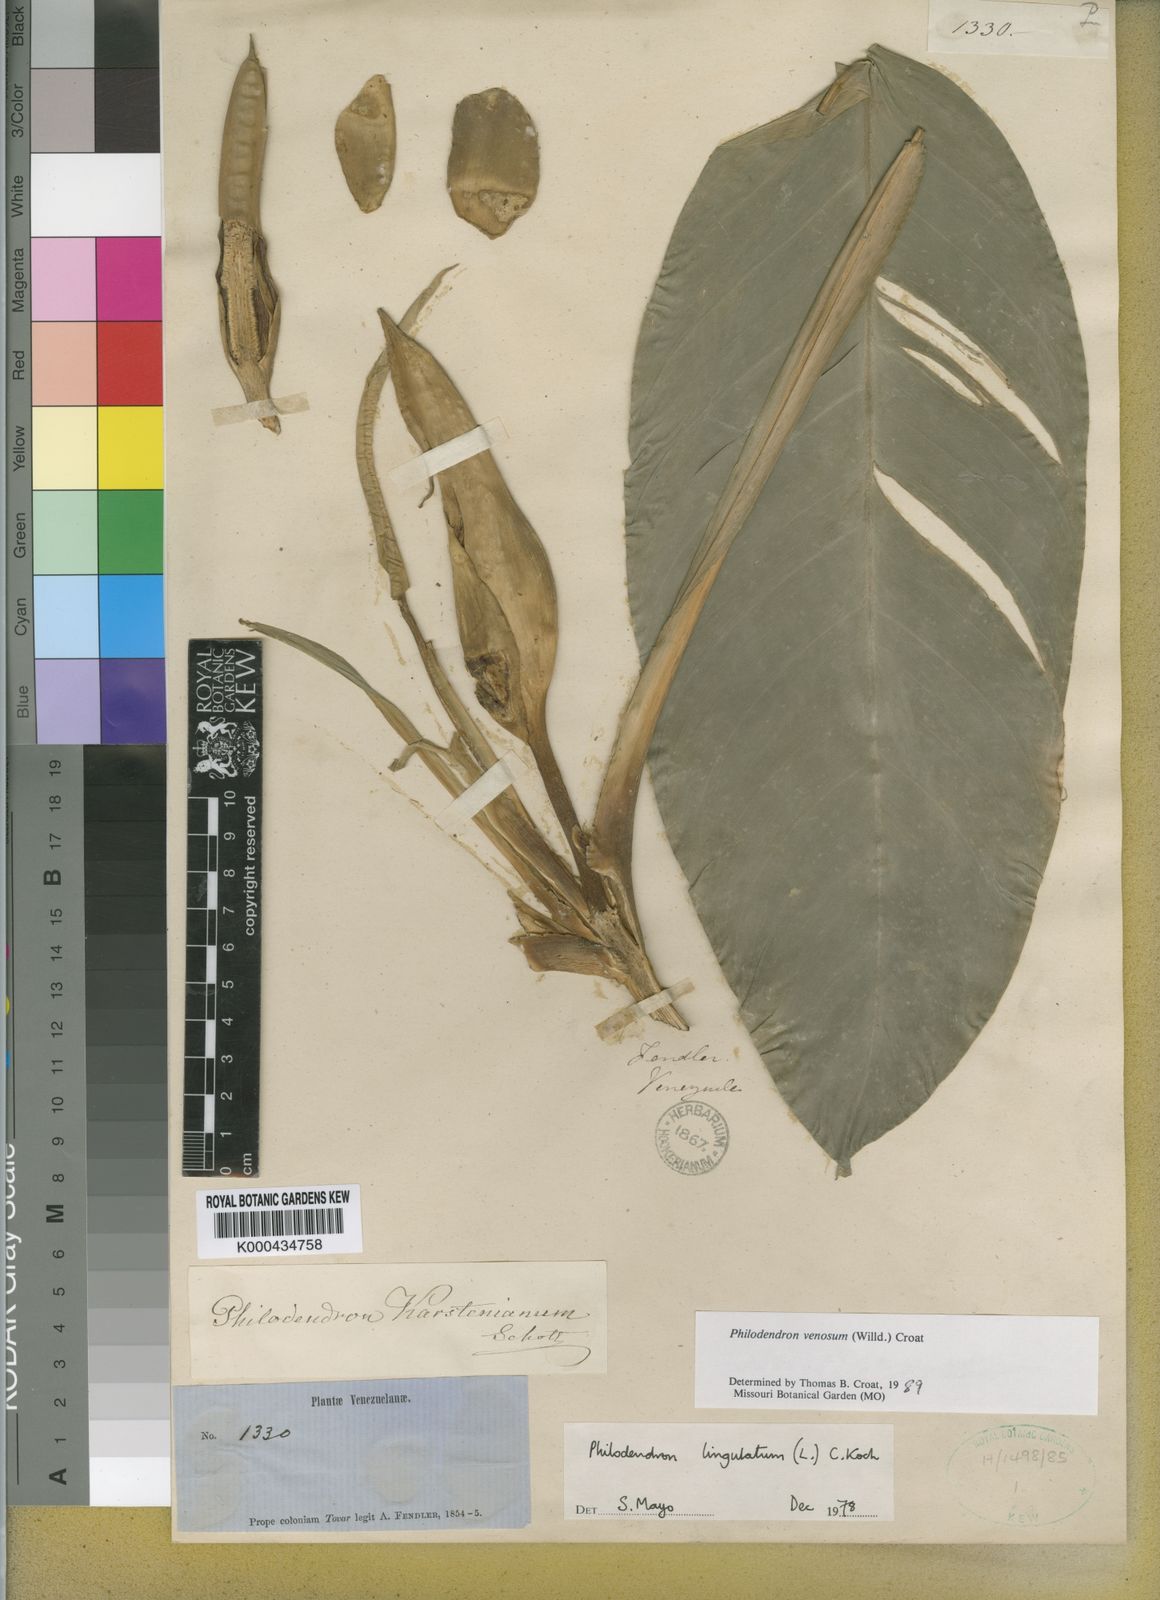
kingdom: Plantae
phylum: Tracheophyta
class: Liliopsida
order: Alismatales
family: Araceae
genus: Philodendron
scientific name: Philodendron venosum
